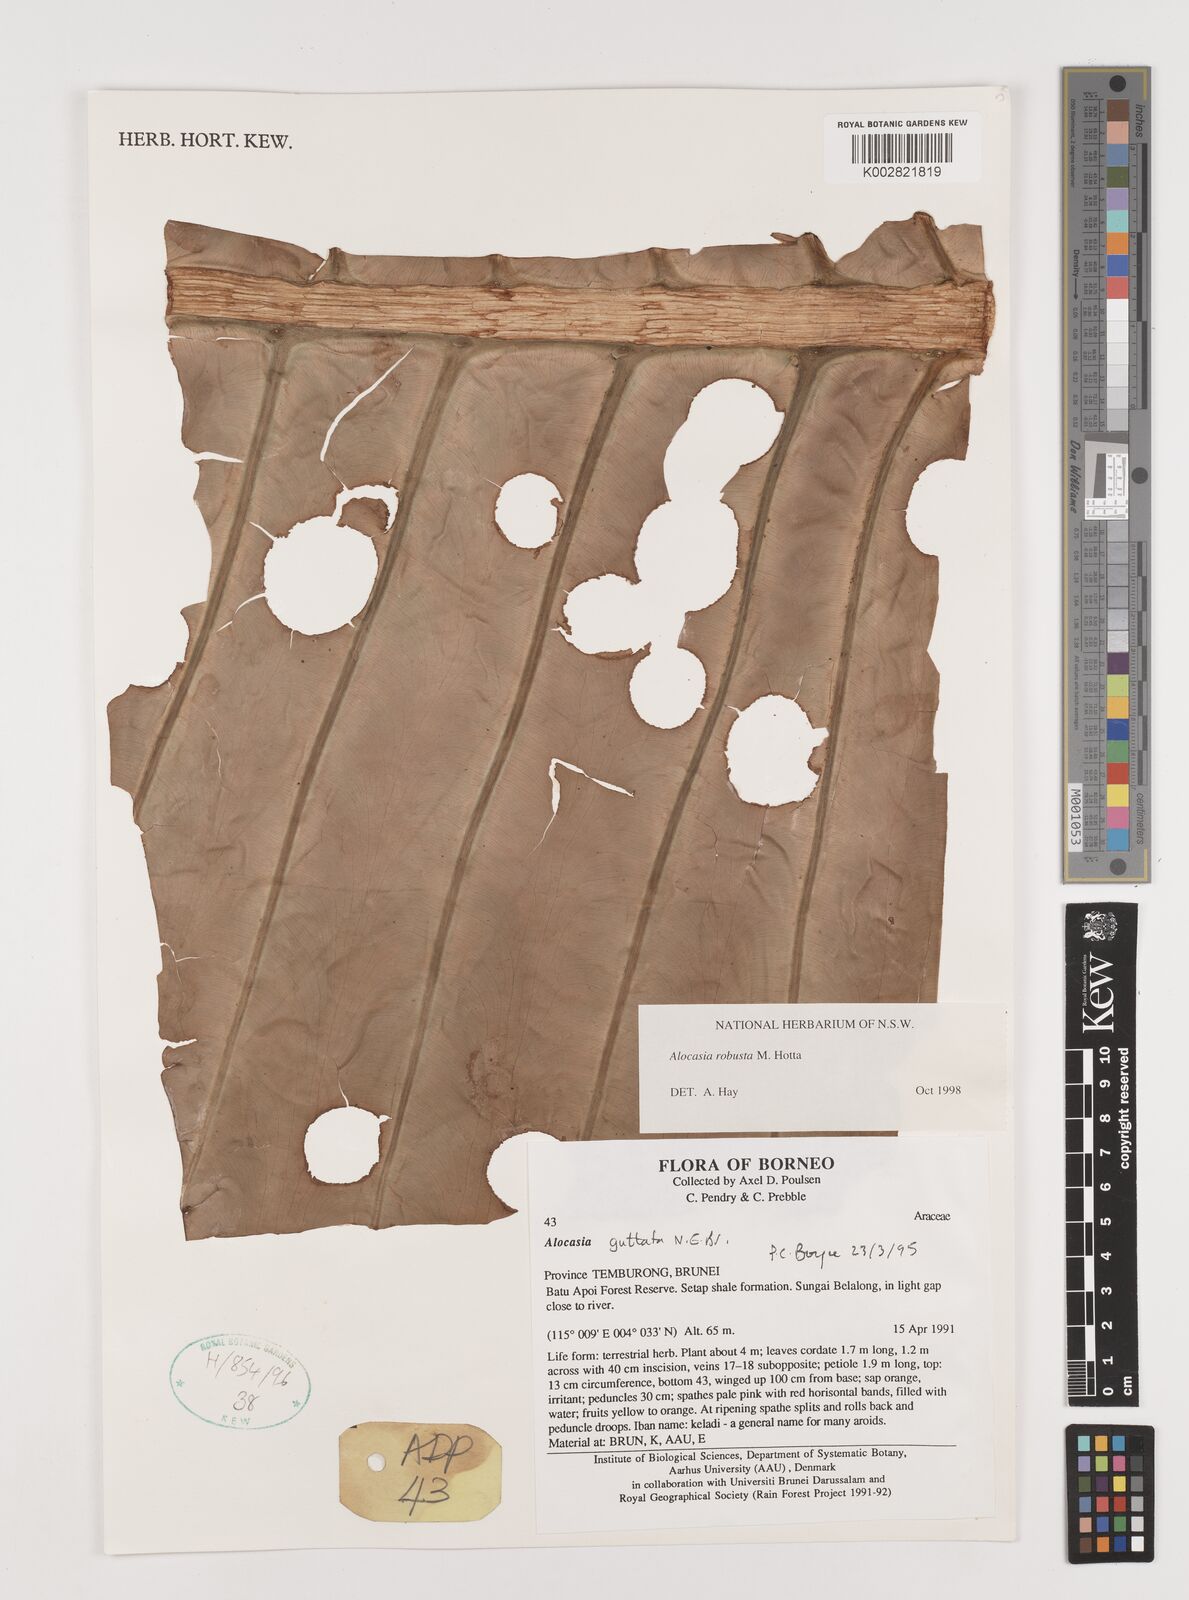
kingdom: Plantae
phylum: Tracheophyta
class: Liliopsida
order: Alismatales
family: Araceae
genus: Alocasia
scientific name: Alocasia robusta
